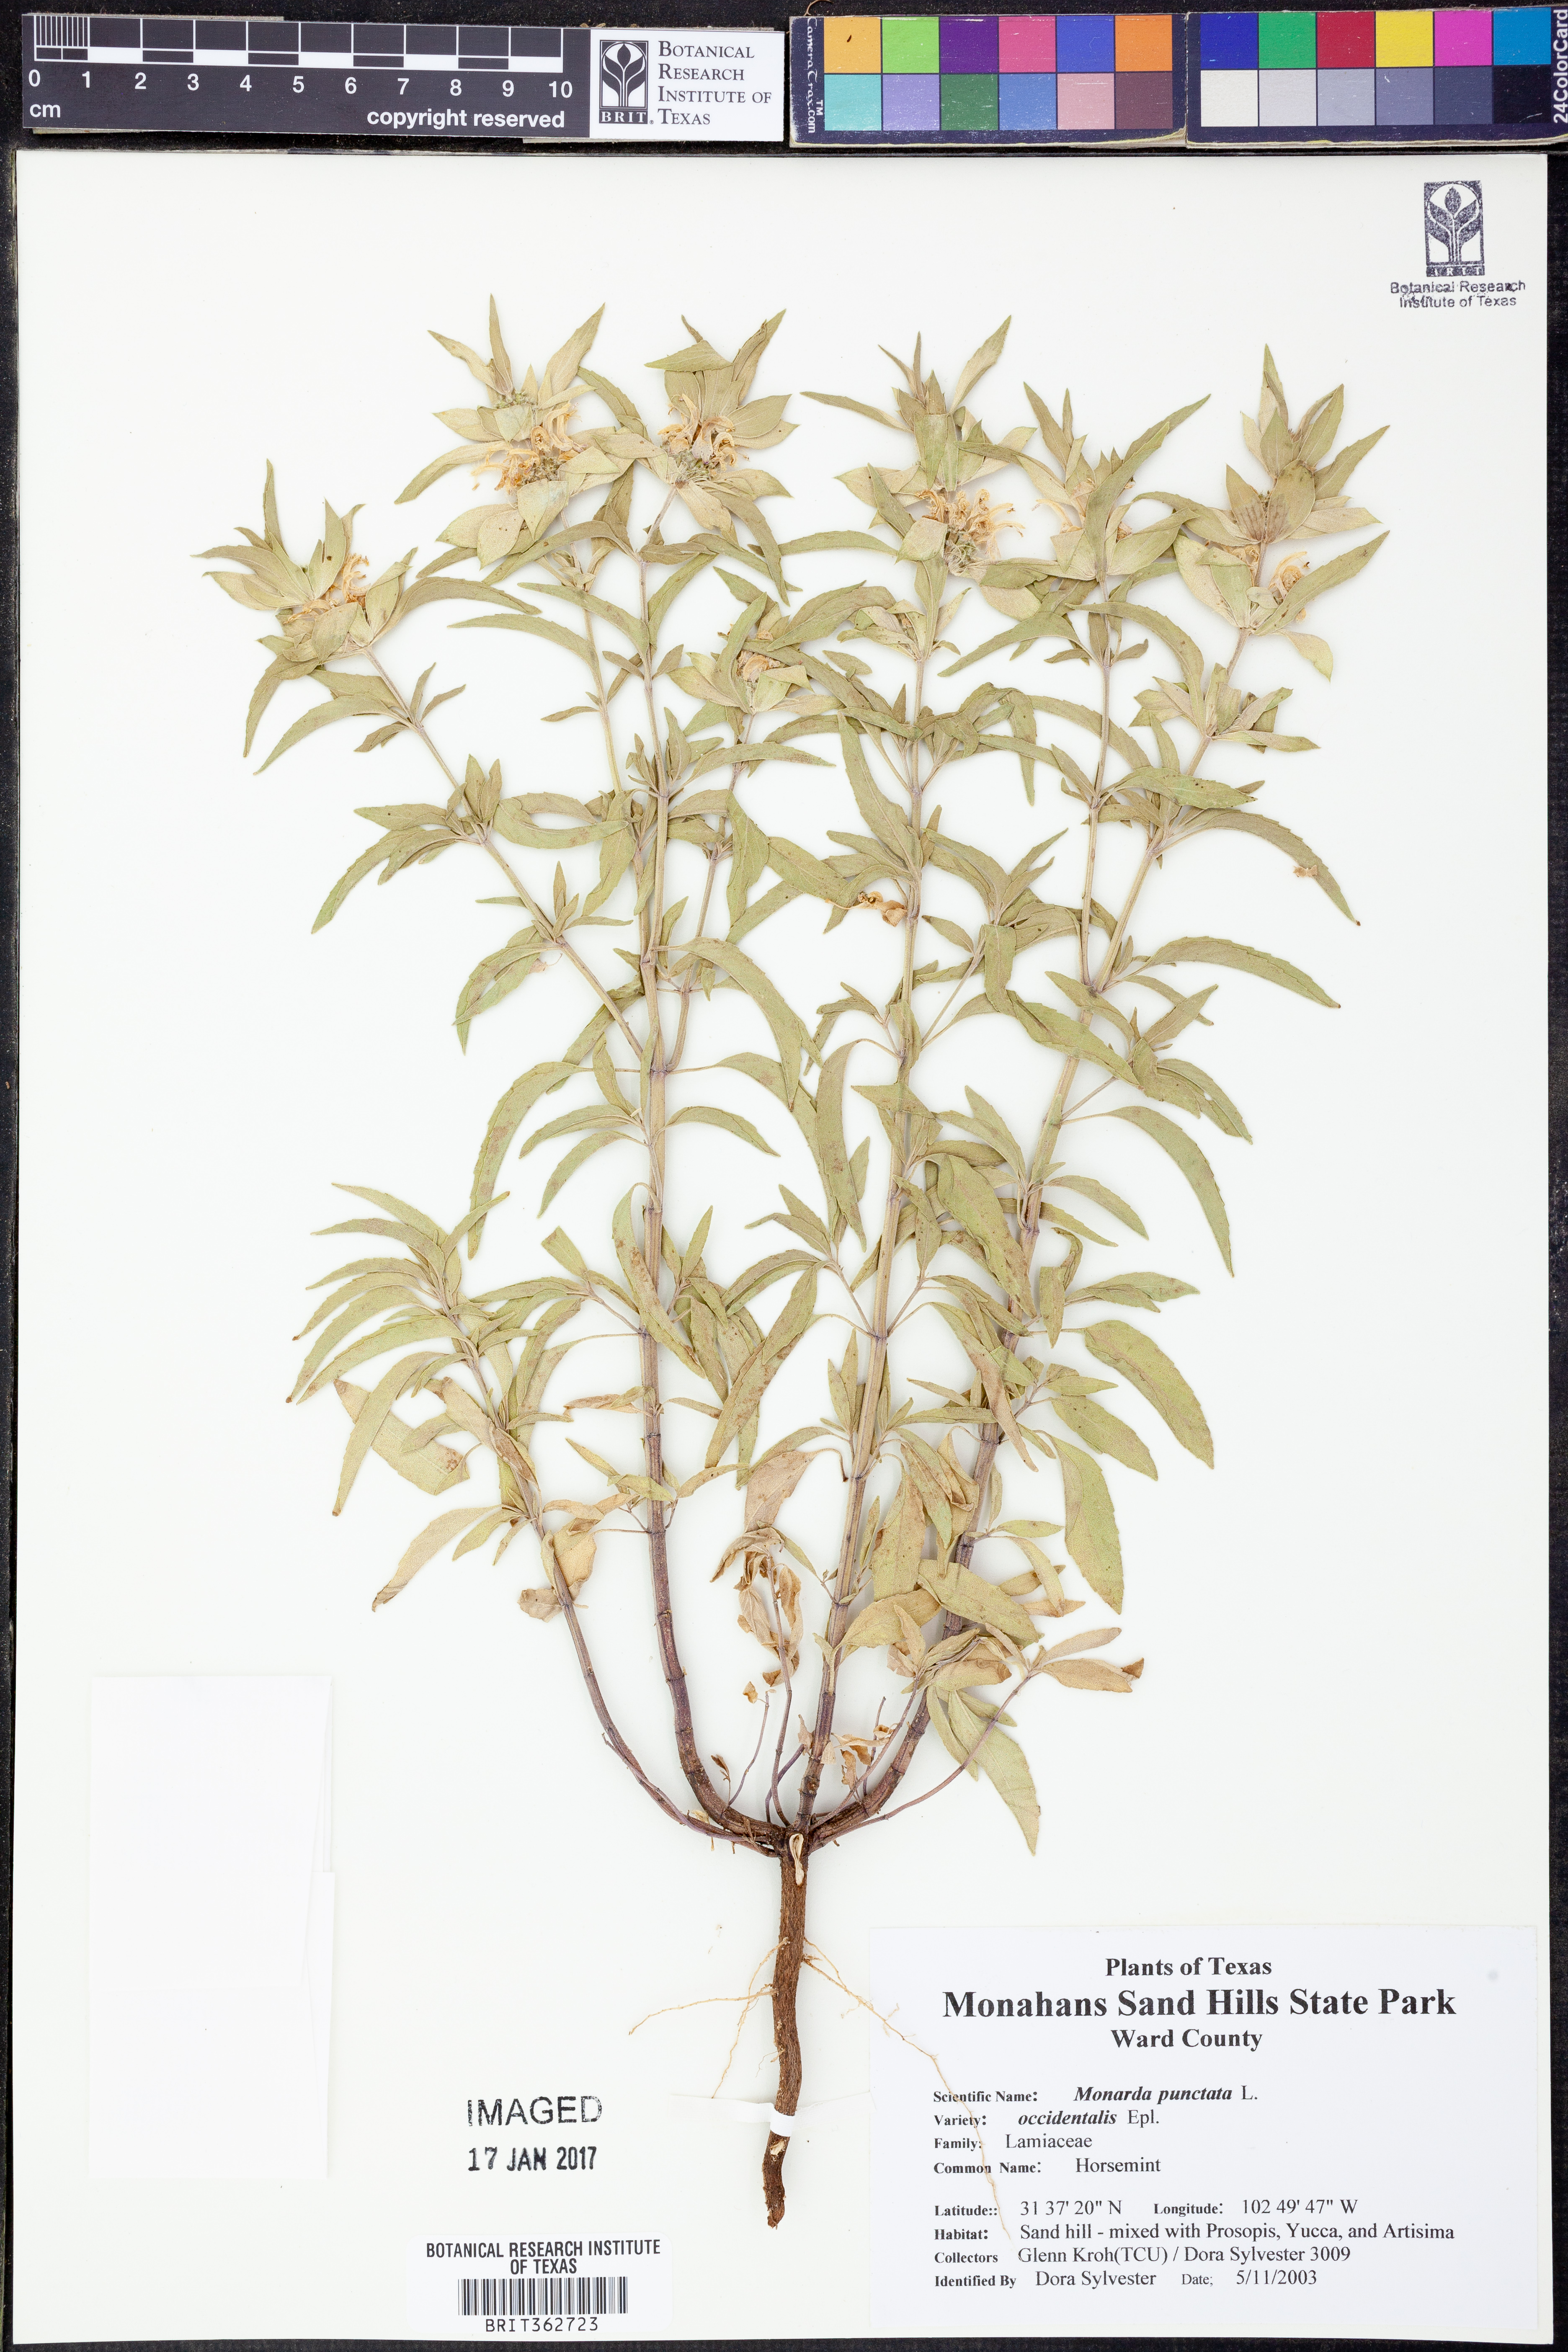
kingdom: Plantae
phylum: Tracheophyta
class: Magnoliopsida
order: Lamiales
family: Lamiaceae
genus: Monarda
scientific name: Monarda punctata
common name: Dotted monarda
